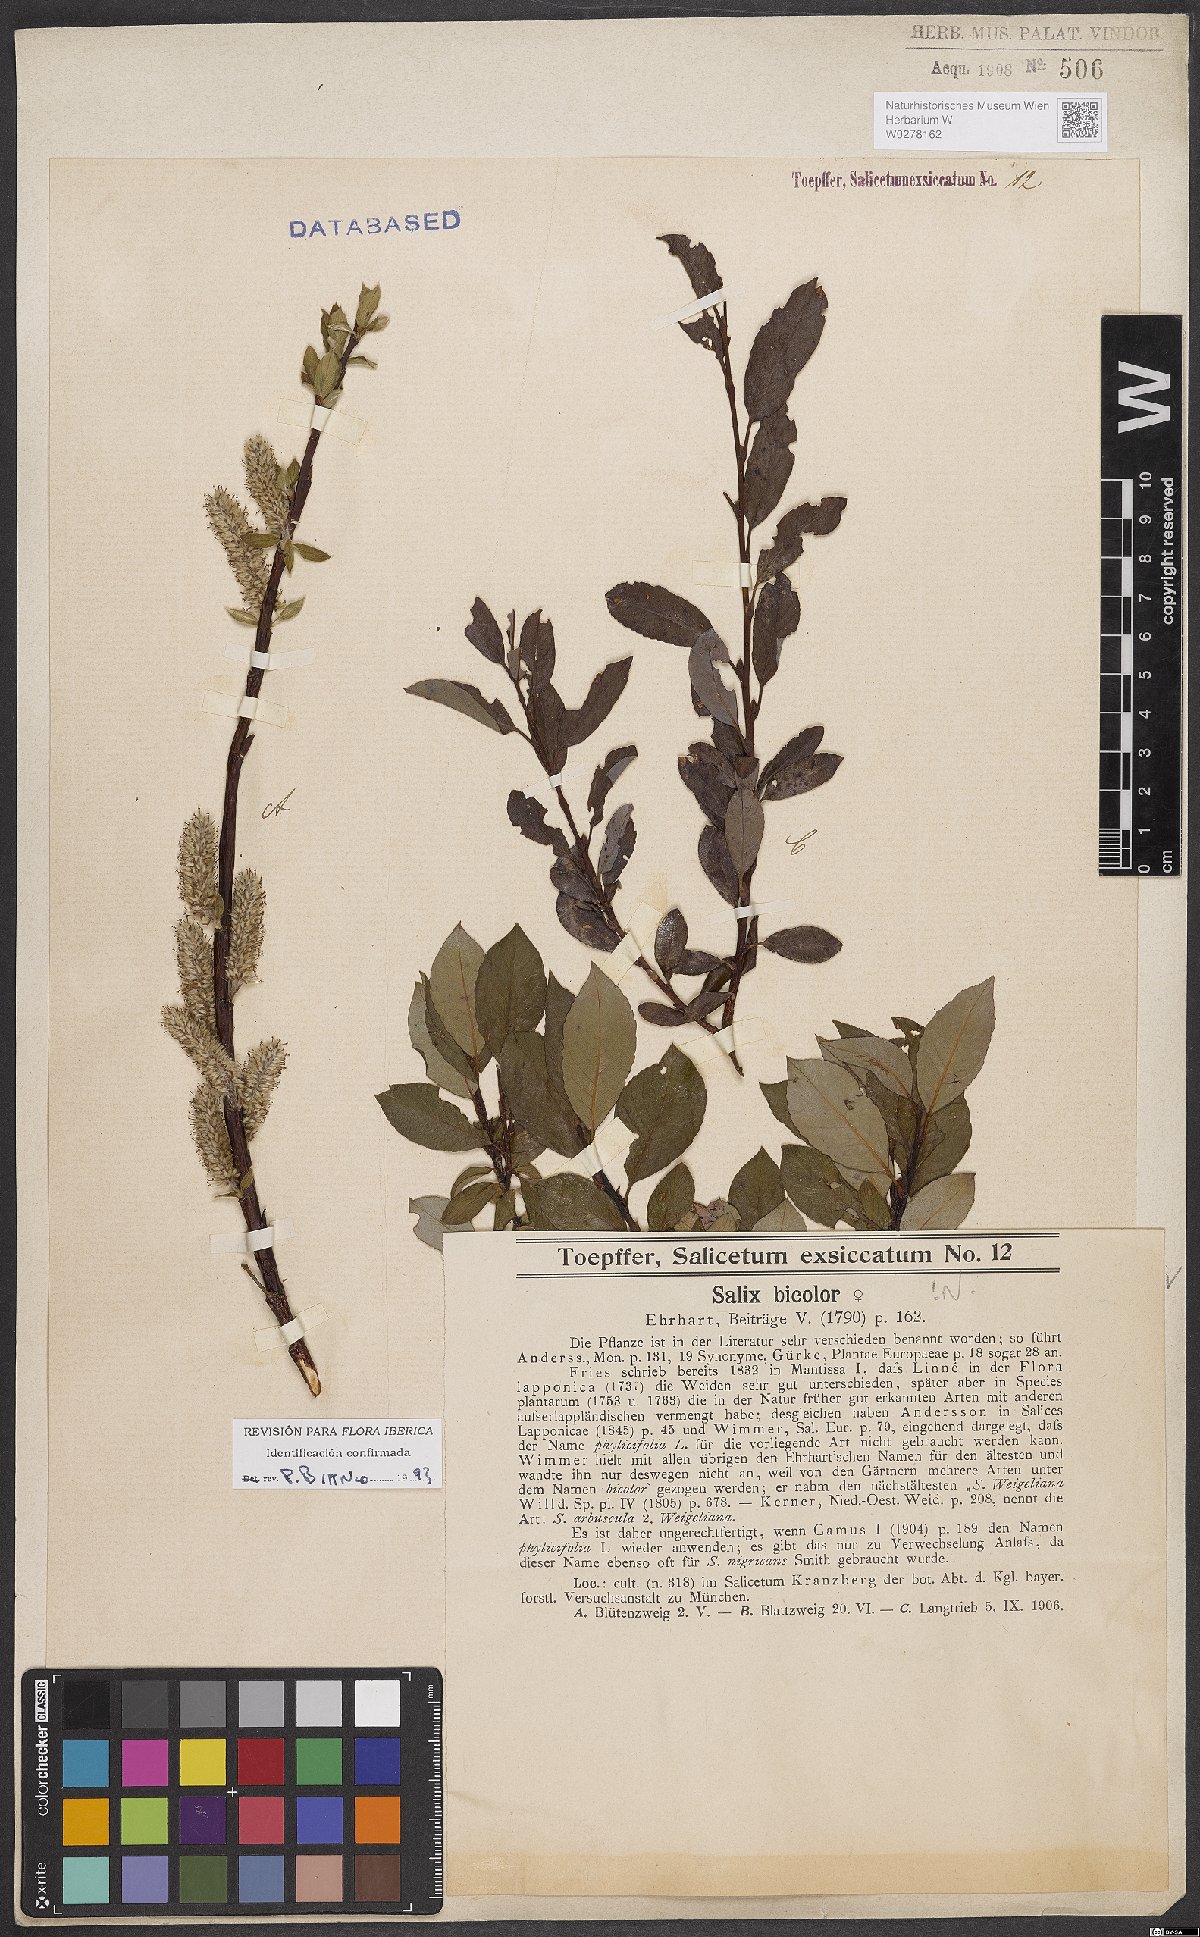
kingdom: Plantae
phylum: Tracheophyta
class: Magnoliopsida
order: Malpighiales
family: Salicaceae
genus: Salix
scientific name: Salix bicolor
